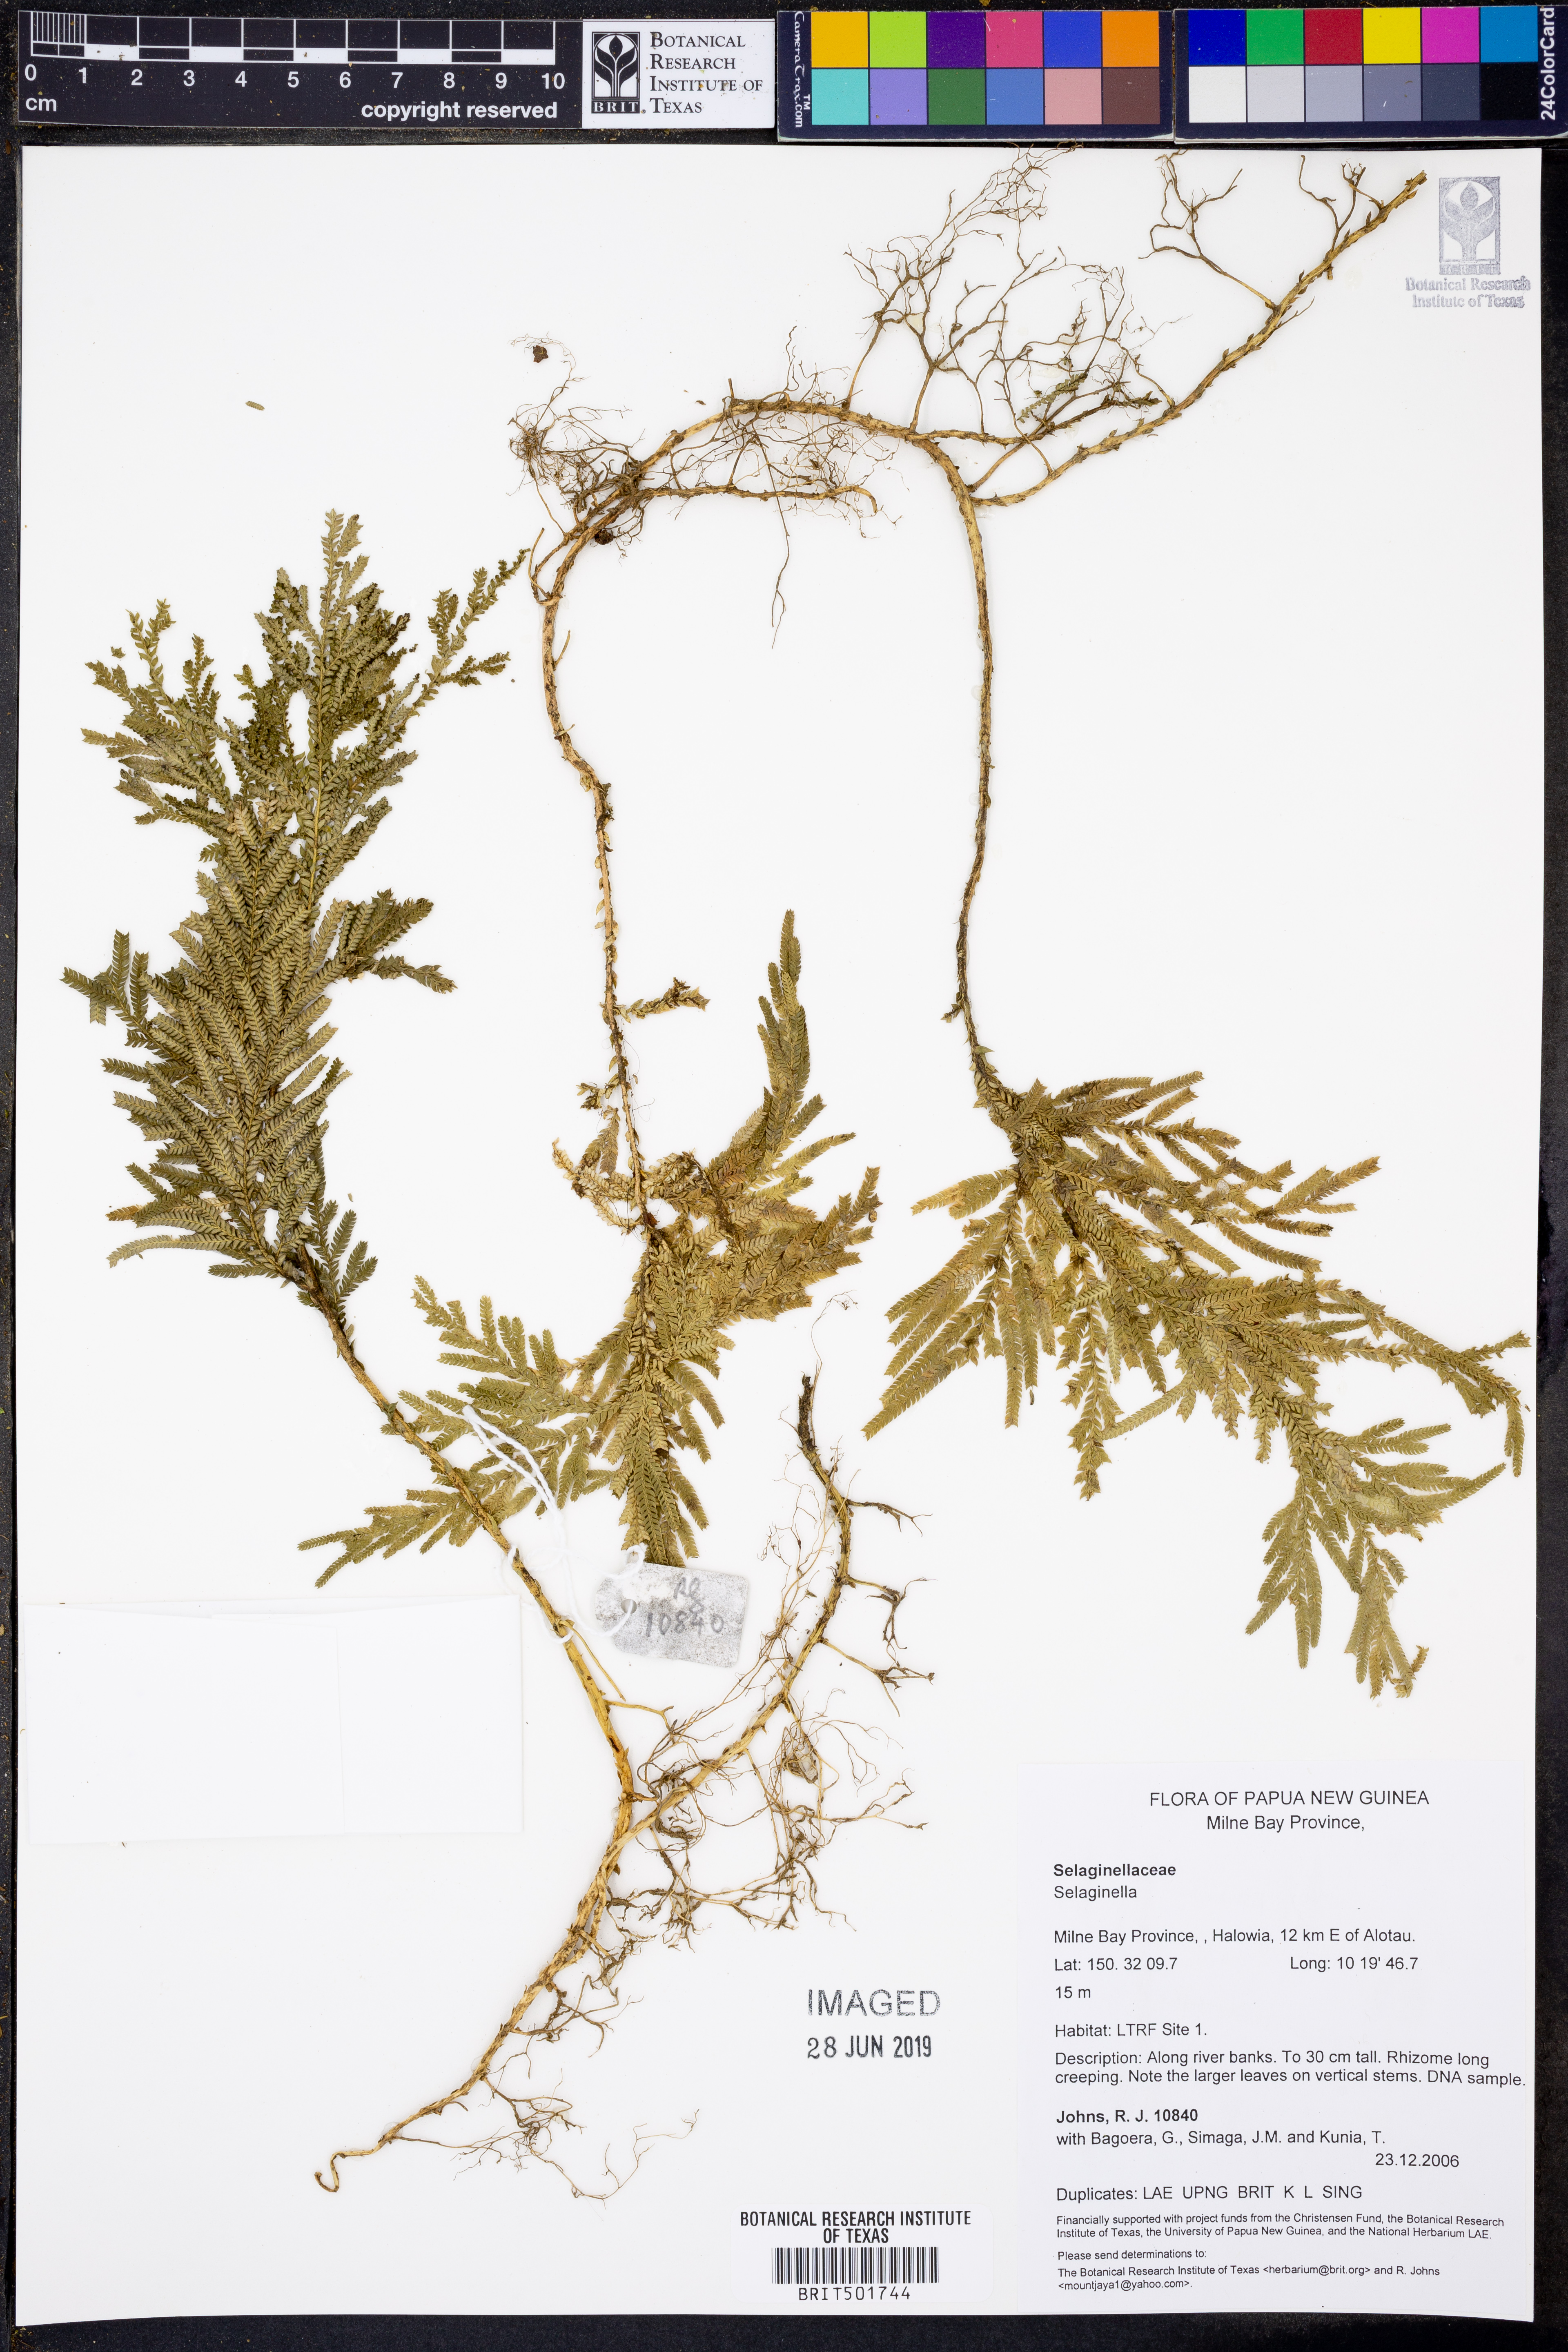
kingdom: Plantae
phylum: Tracheophyta
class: Lycopodiopsida
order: Selaginellales
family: Selaginellaceae
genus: Selaginella
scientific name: Selaginella
